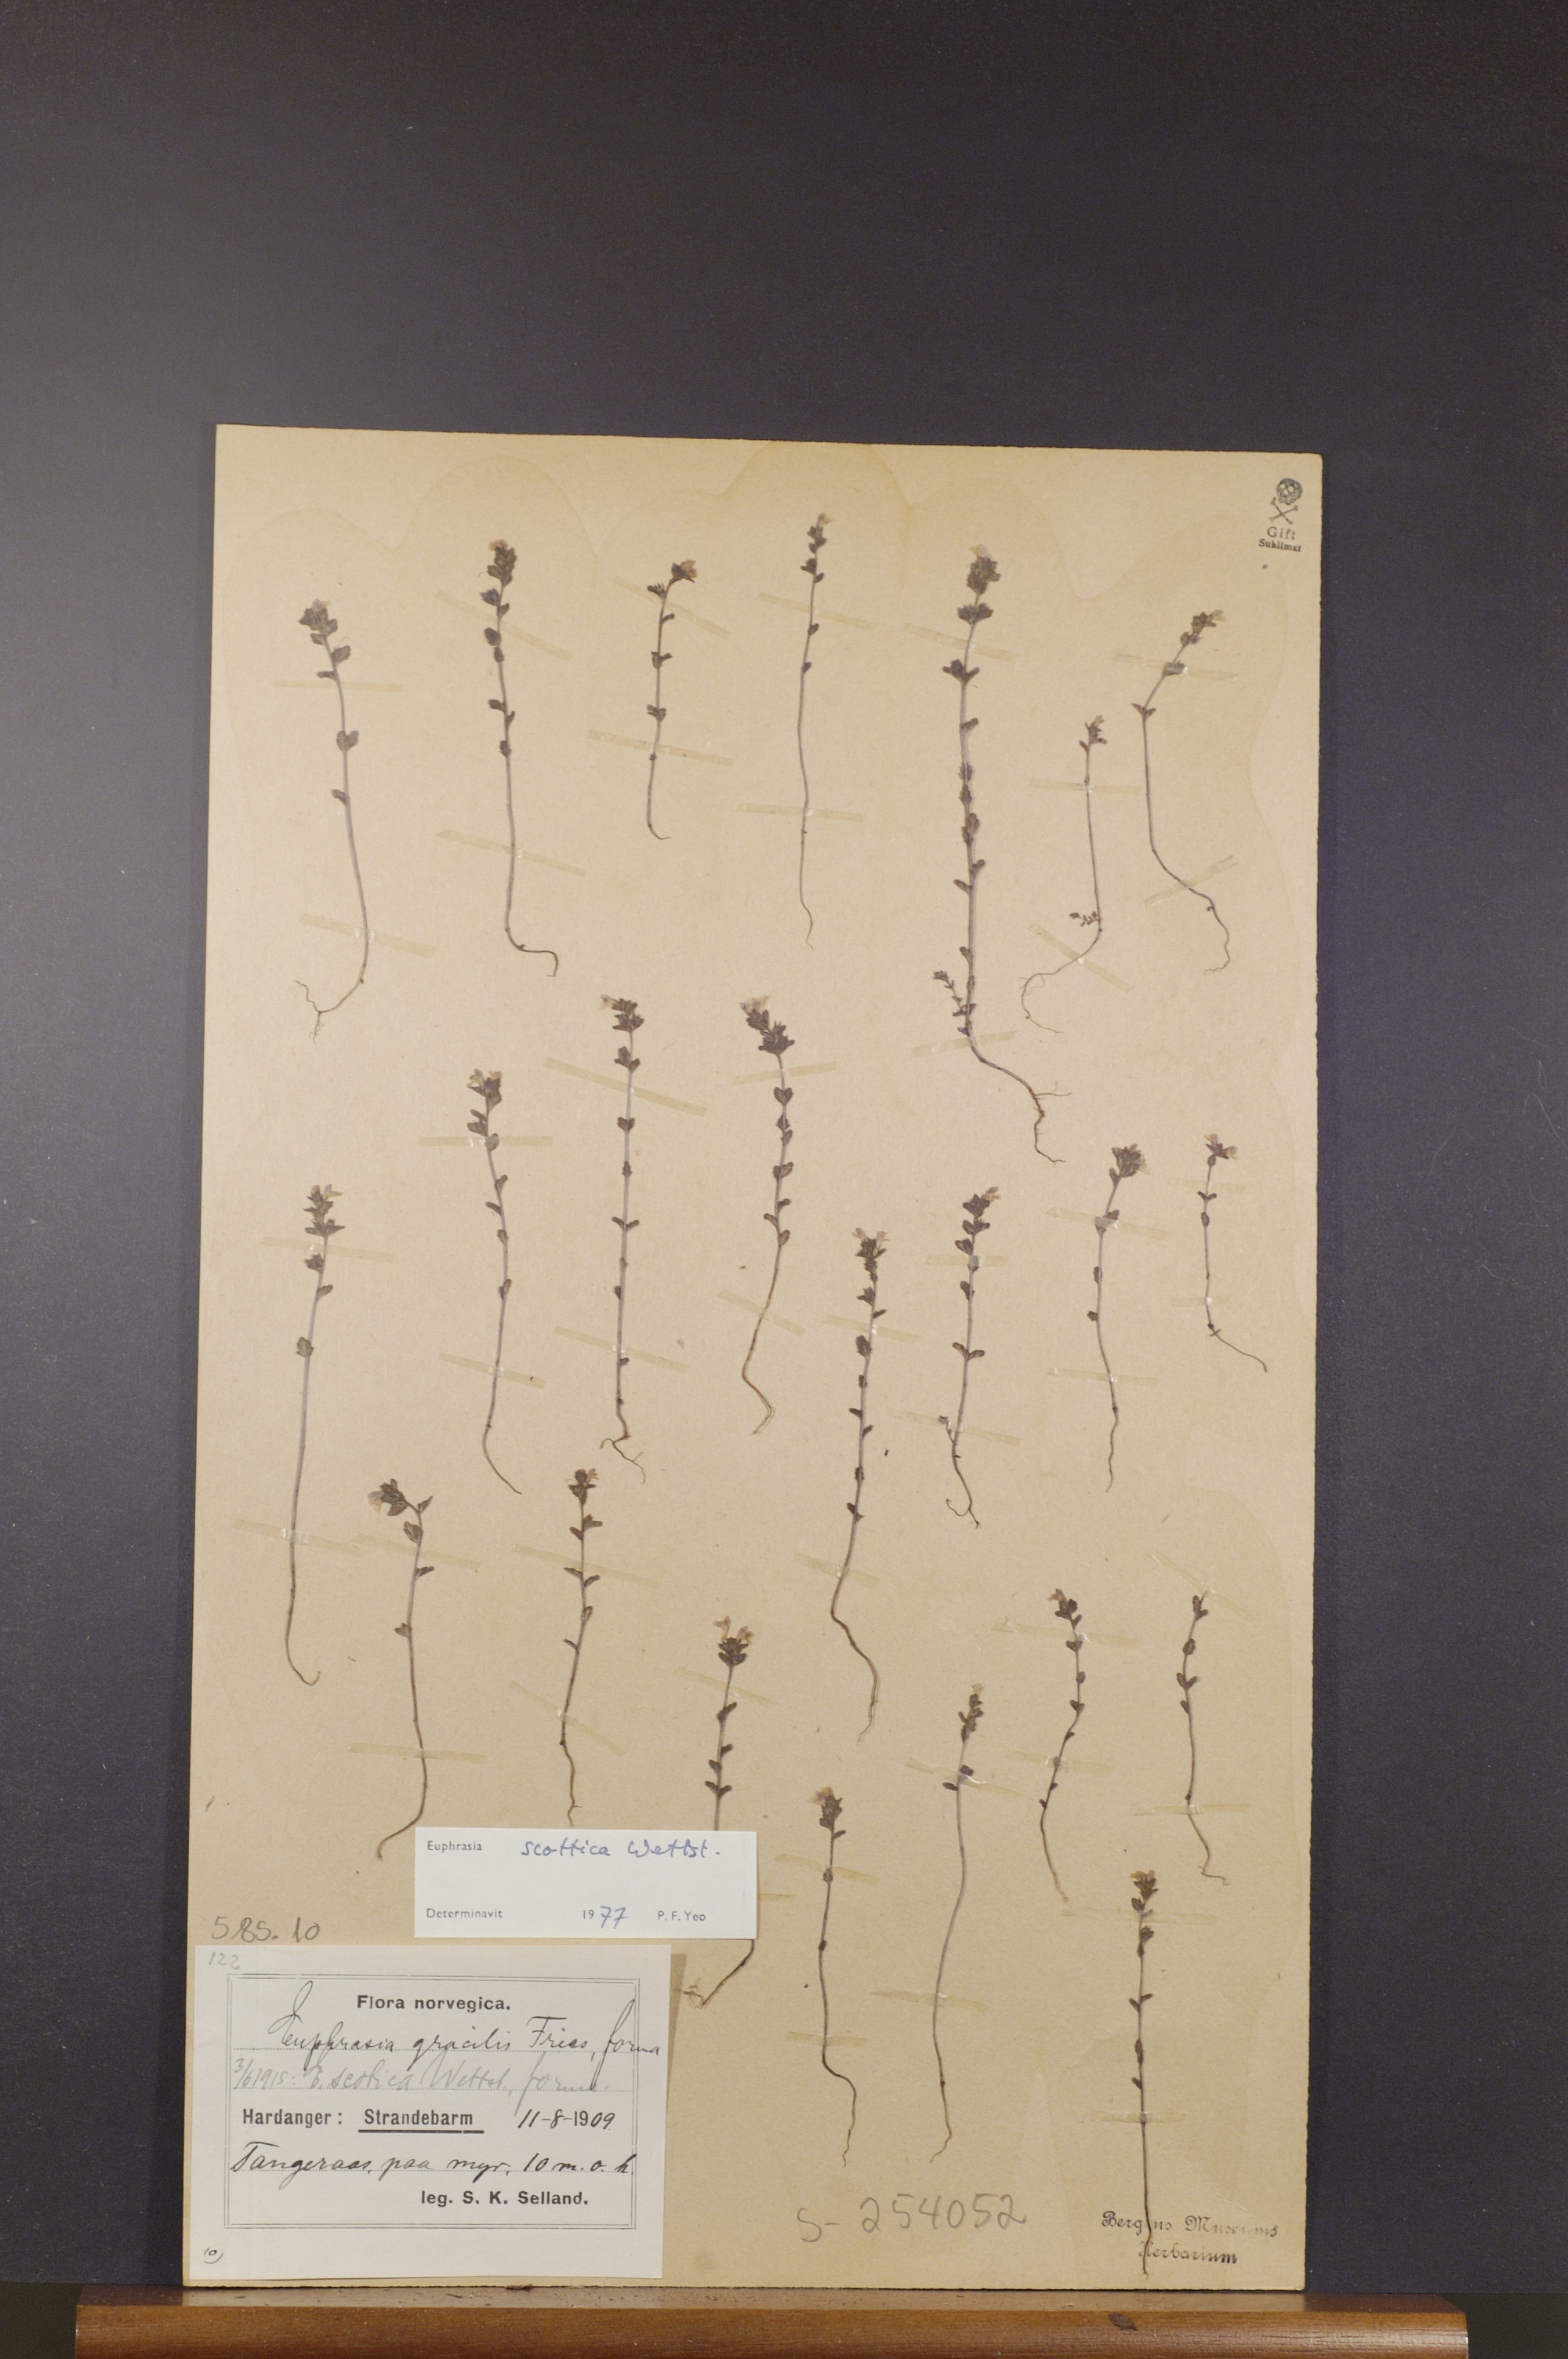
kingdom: Plantae
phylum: Tracheophyta
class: Magnoliopsida
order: Lamiales
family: Orobanchaceae
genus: Euphrasia
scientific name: Euphrasia scottica
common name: Slender scottish eyebright
